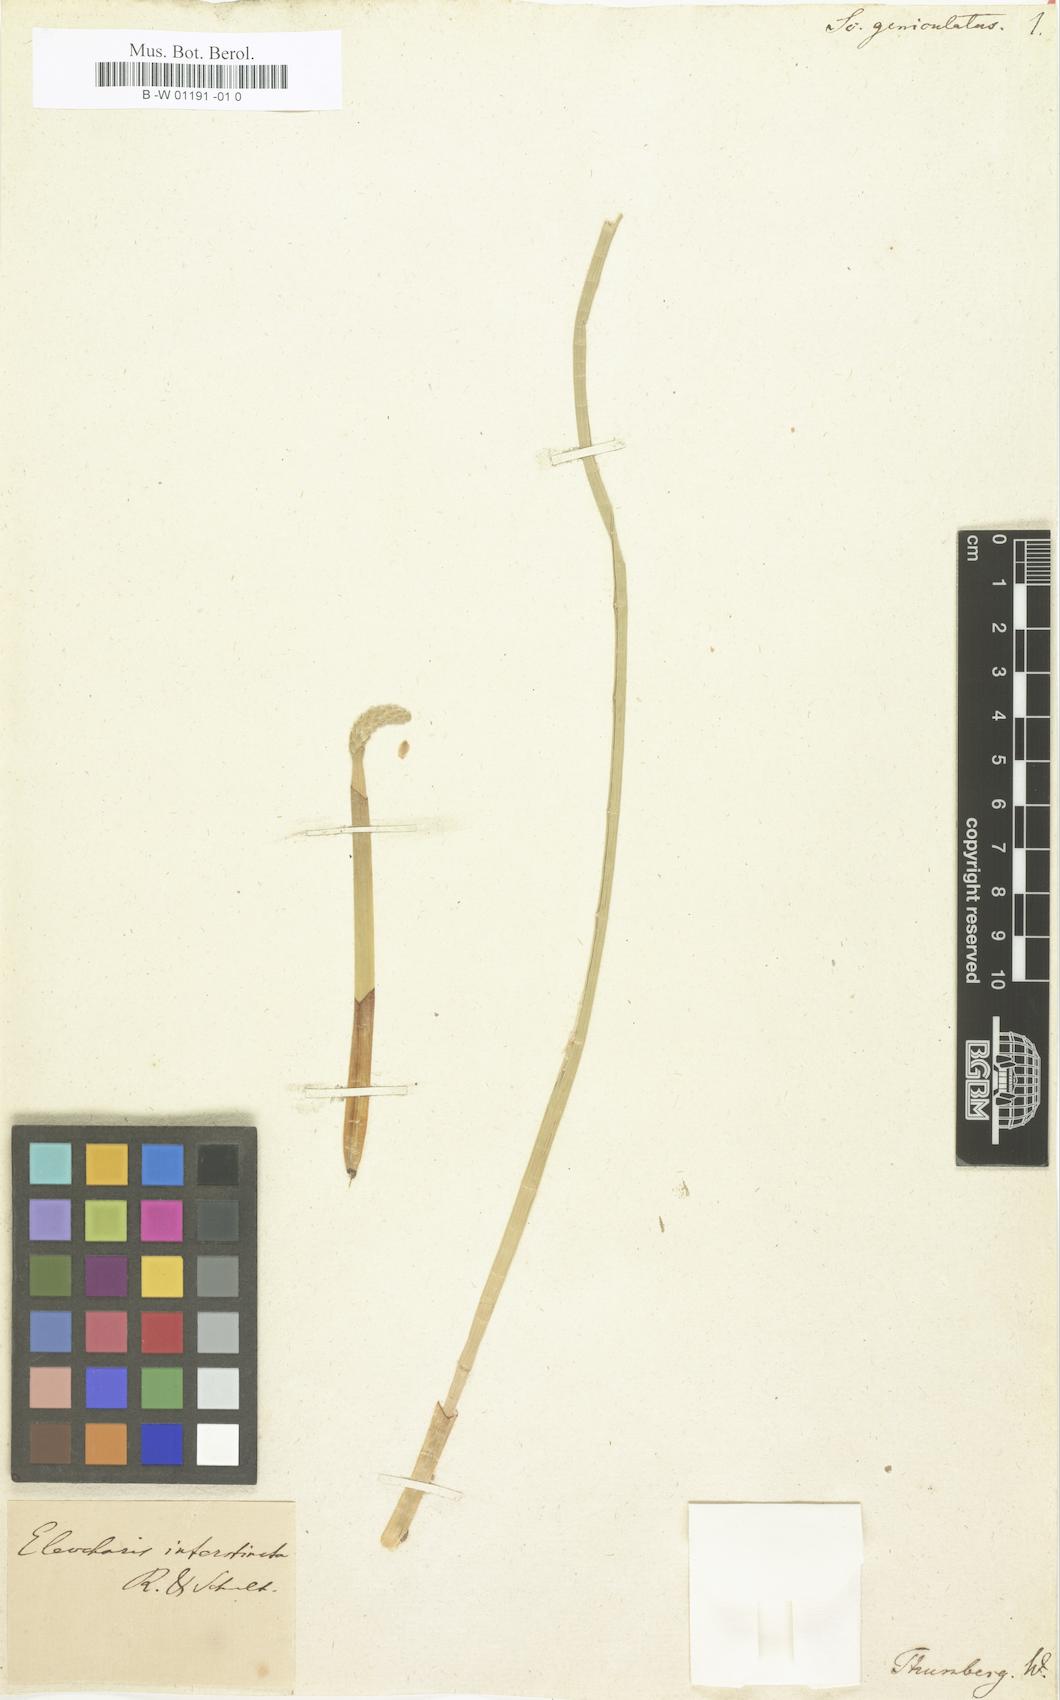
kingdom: Plantae
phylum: Tracheophyta
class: Liliopsida
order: Poales
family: Cyperaceae
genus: Eleocharis
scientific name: Eleocharis geniculata
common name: Canada spikesedge
